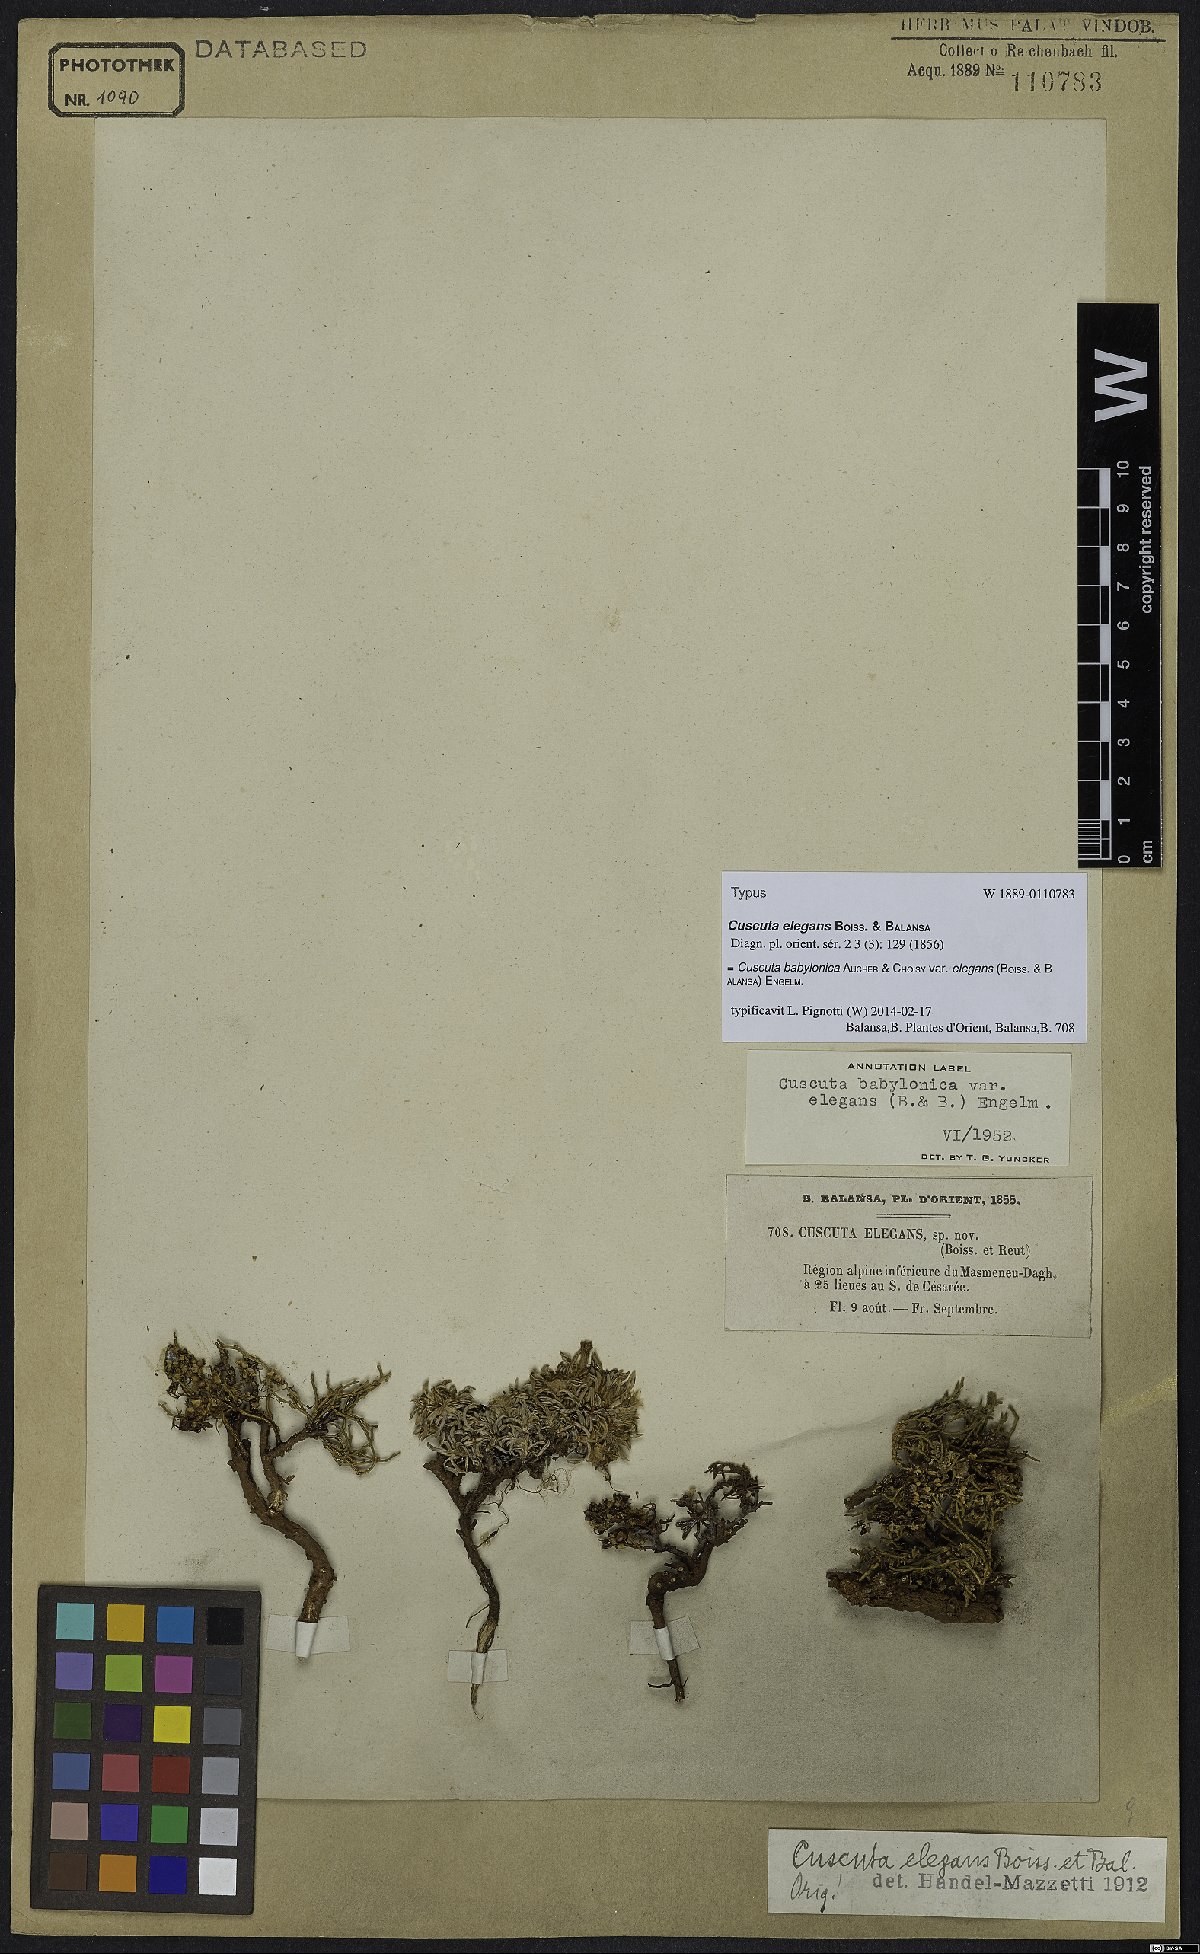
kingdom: Plantae
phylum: Tracheophyta
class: Magnoliopsida
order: Solanales
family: Convolvulaceae
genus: Cuscuta
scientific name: Cuscuta babylonica
